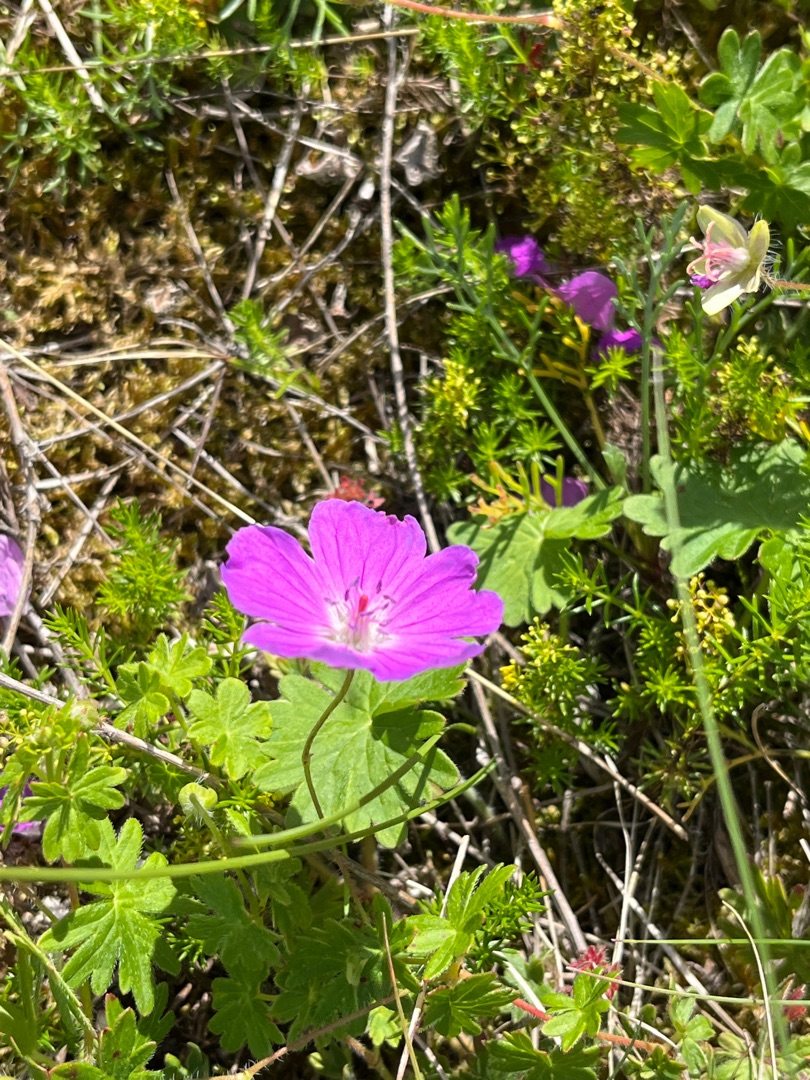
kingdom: Plantae
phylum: Tracheophyta
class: Magnoliopsida
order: Geraniales
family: Geraniaceae
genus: Geranium
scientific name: Geranium sanguineum
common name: Blodrød storkenæb
